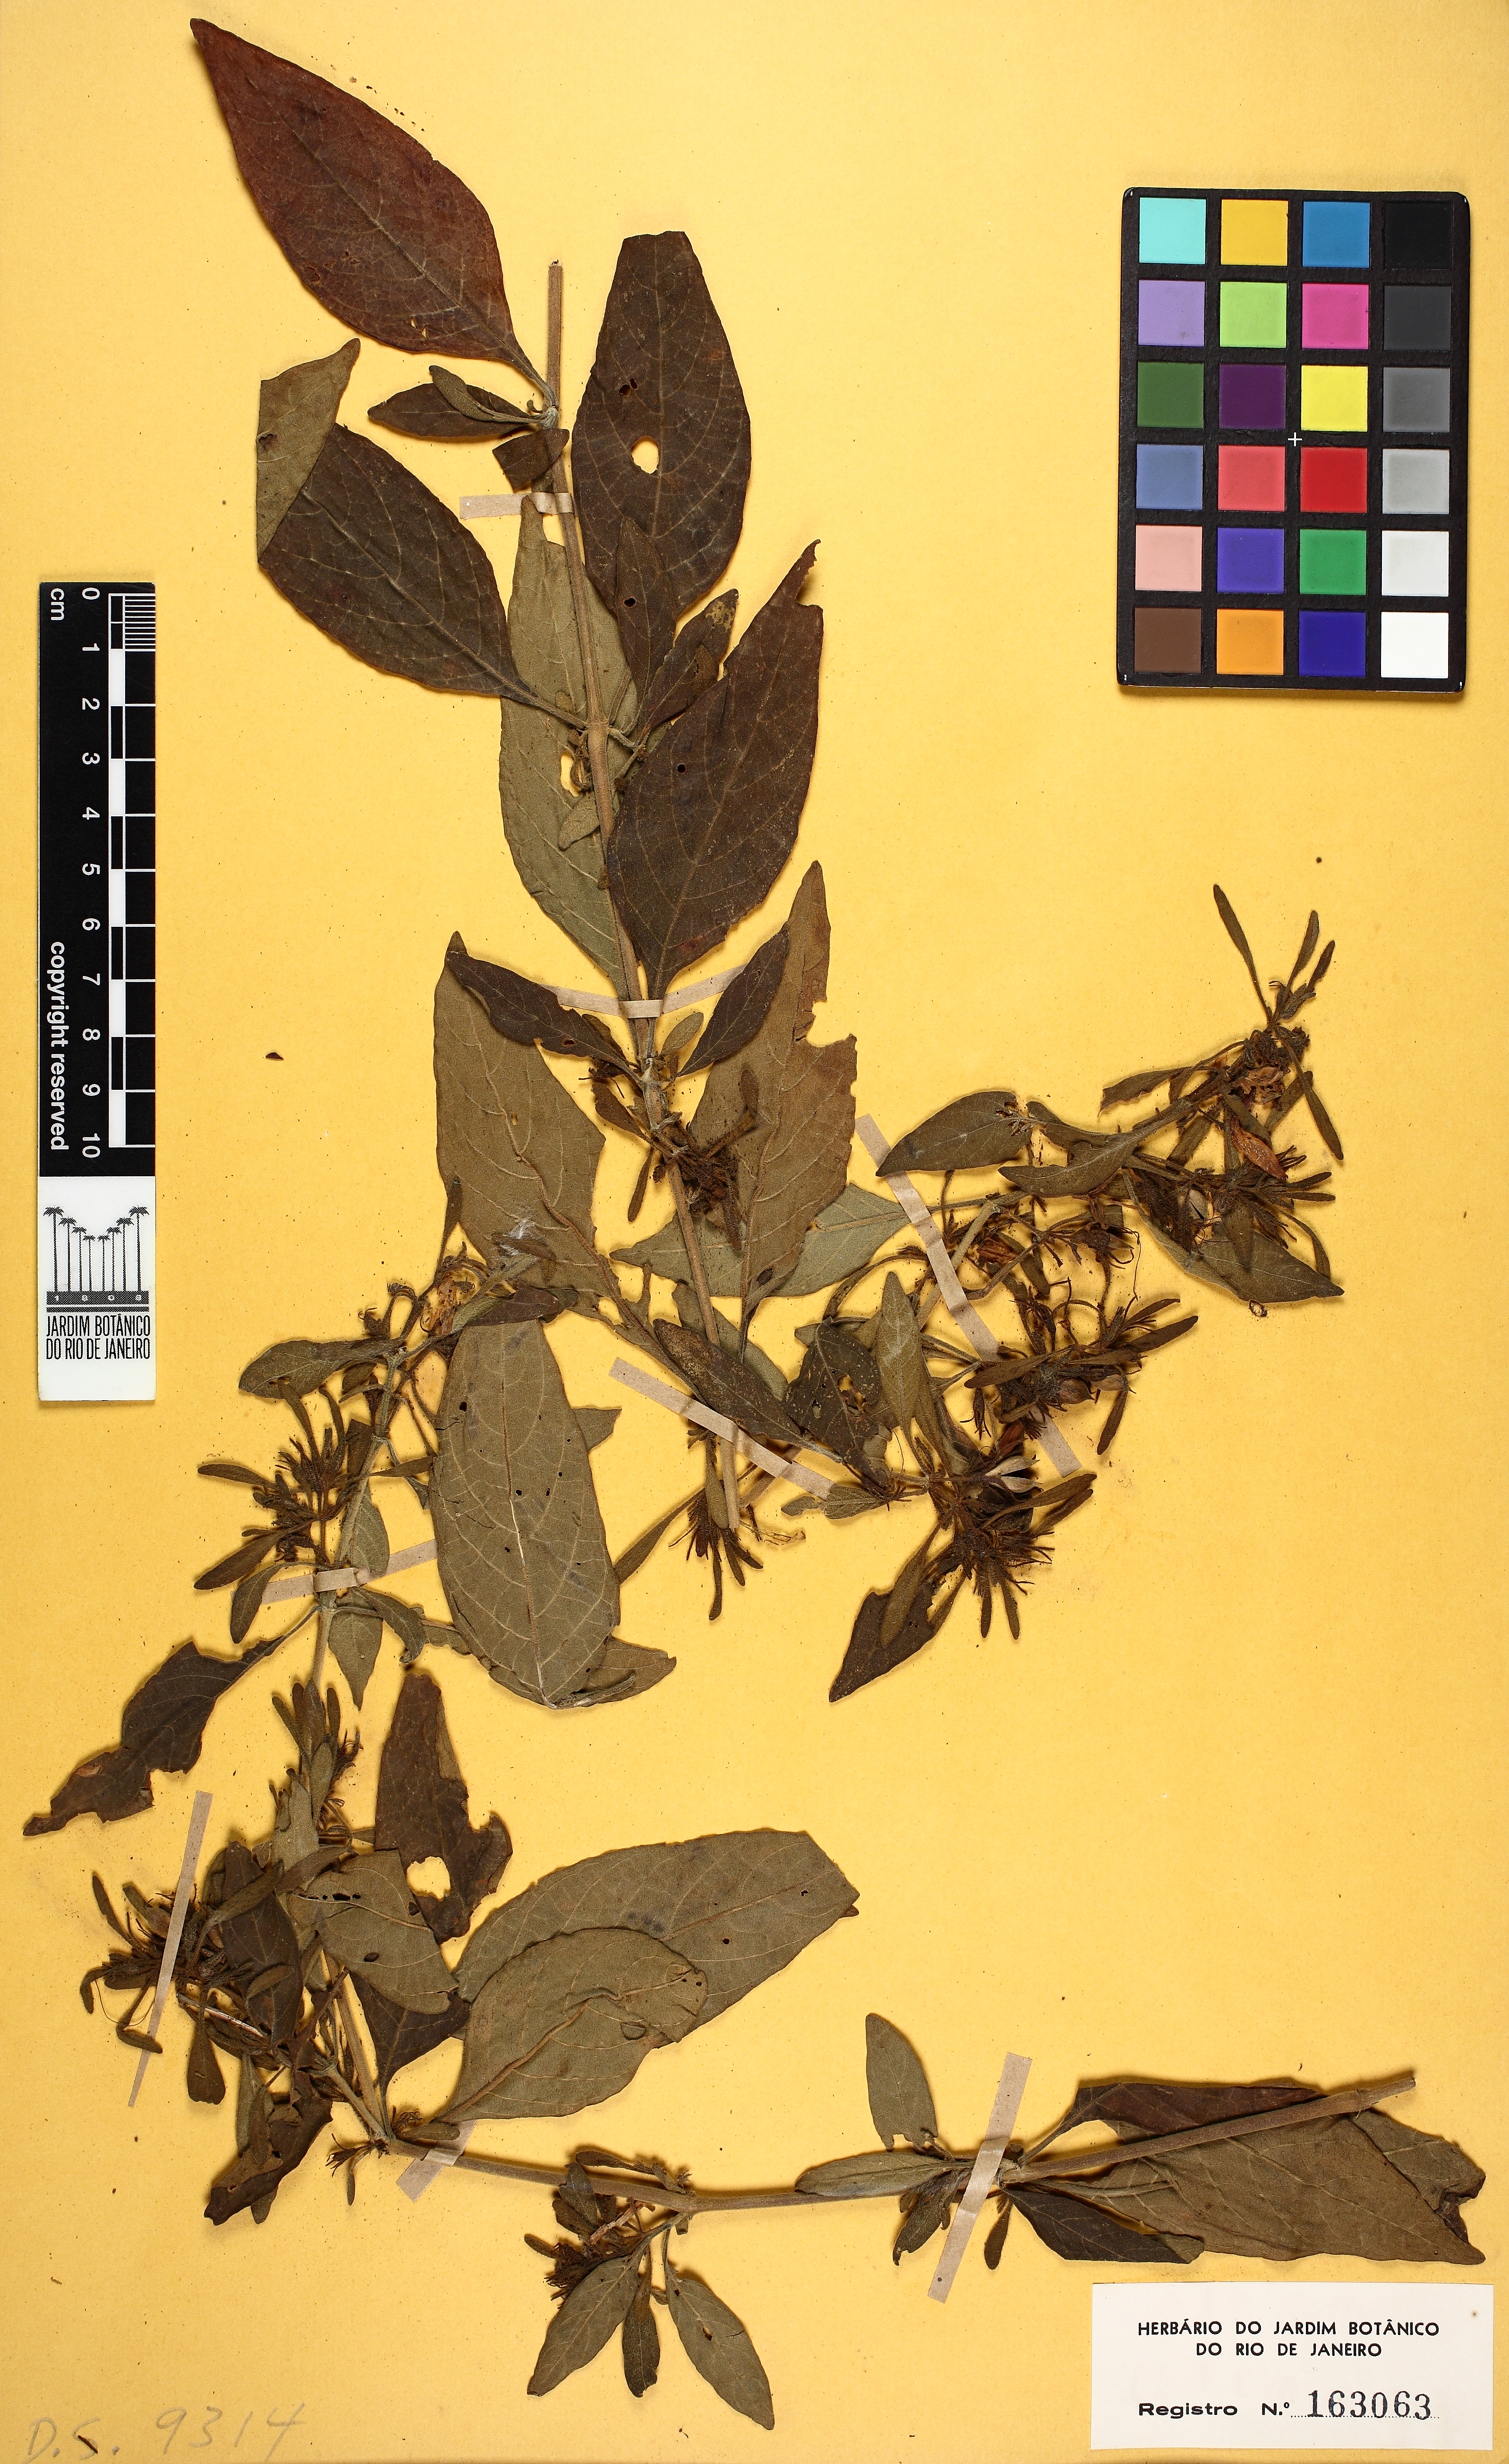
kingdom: Plantae
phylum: Tracheophyta
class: Magnoliopsida
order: Lamiales
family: Acanthaceae
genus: Ruellia
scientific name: Ruellia
